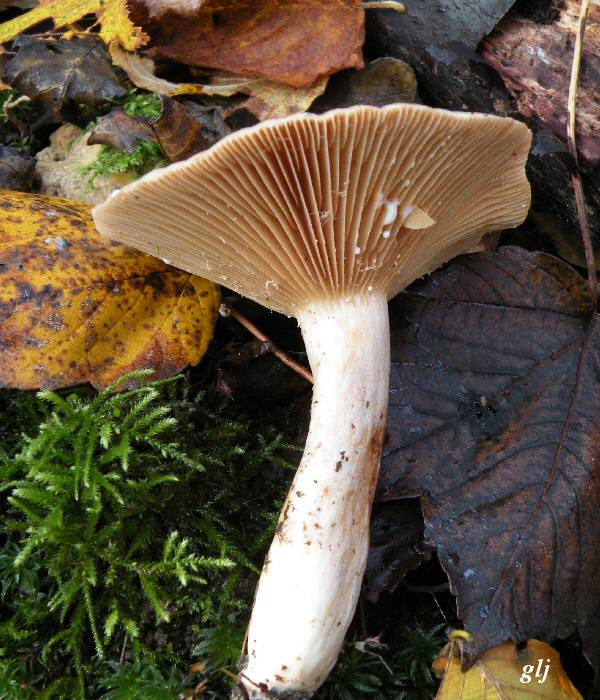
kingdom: Fungi
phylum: Basidiomycota
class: Agaricomycetes
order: Russulales
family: Russulaceae
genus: Lactarius
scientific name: Lactarius pyrogalus
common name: hassel-mælkehat
